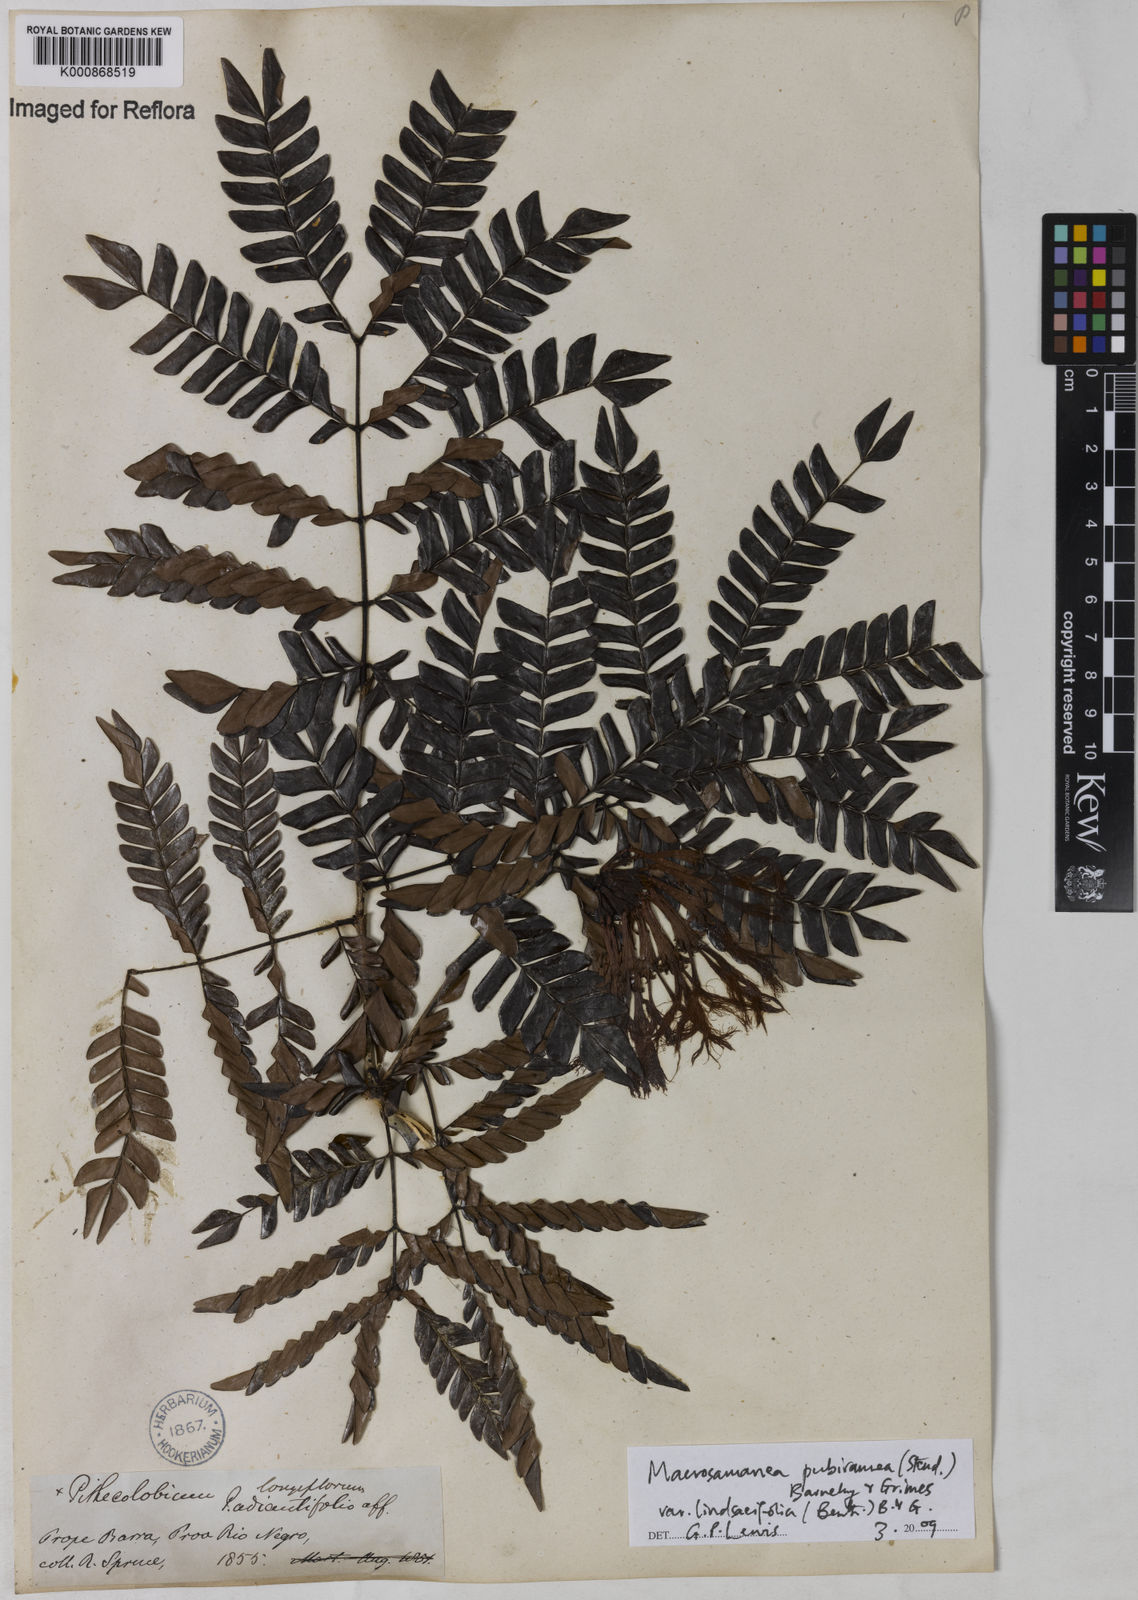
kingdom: Plantae
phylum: Tracheophyta
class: Magnoliopsida
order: Fabales
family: Fabaceae
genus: Macrosamanea
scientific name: Macrosamanea pubiramea
